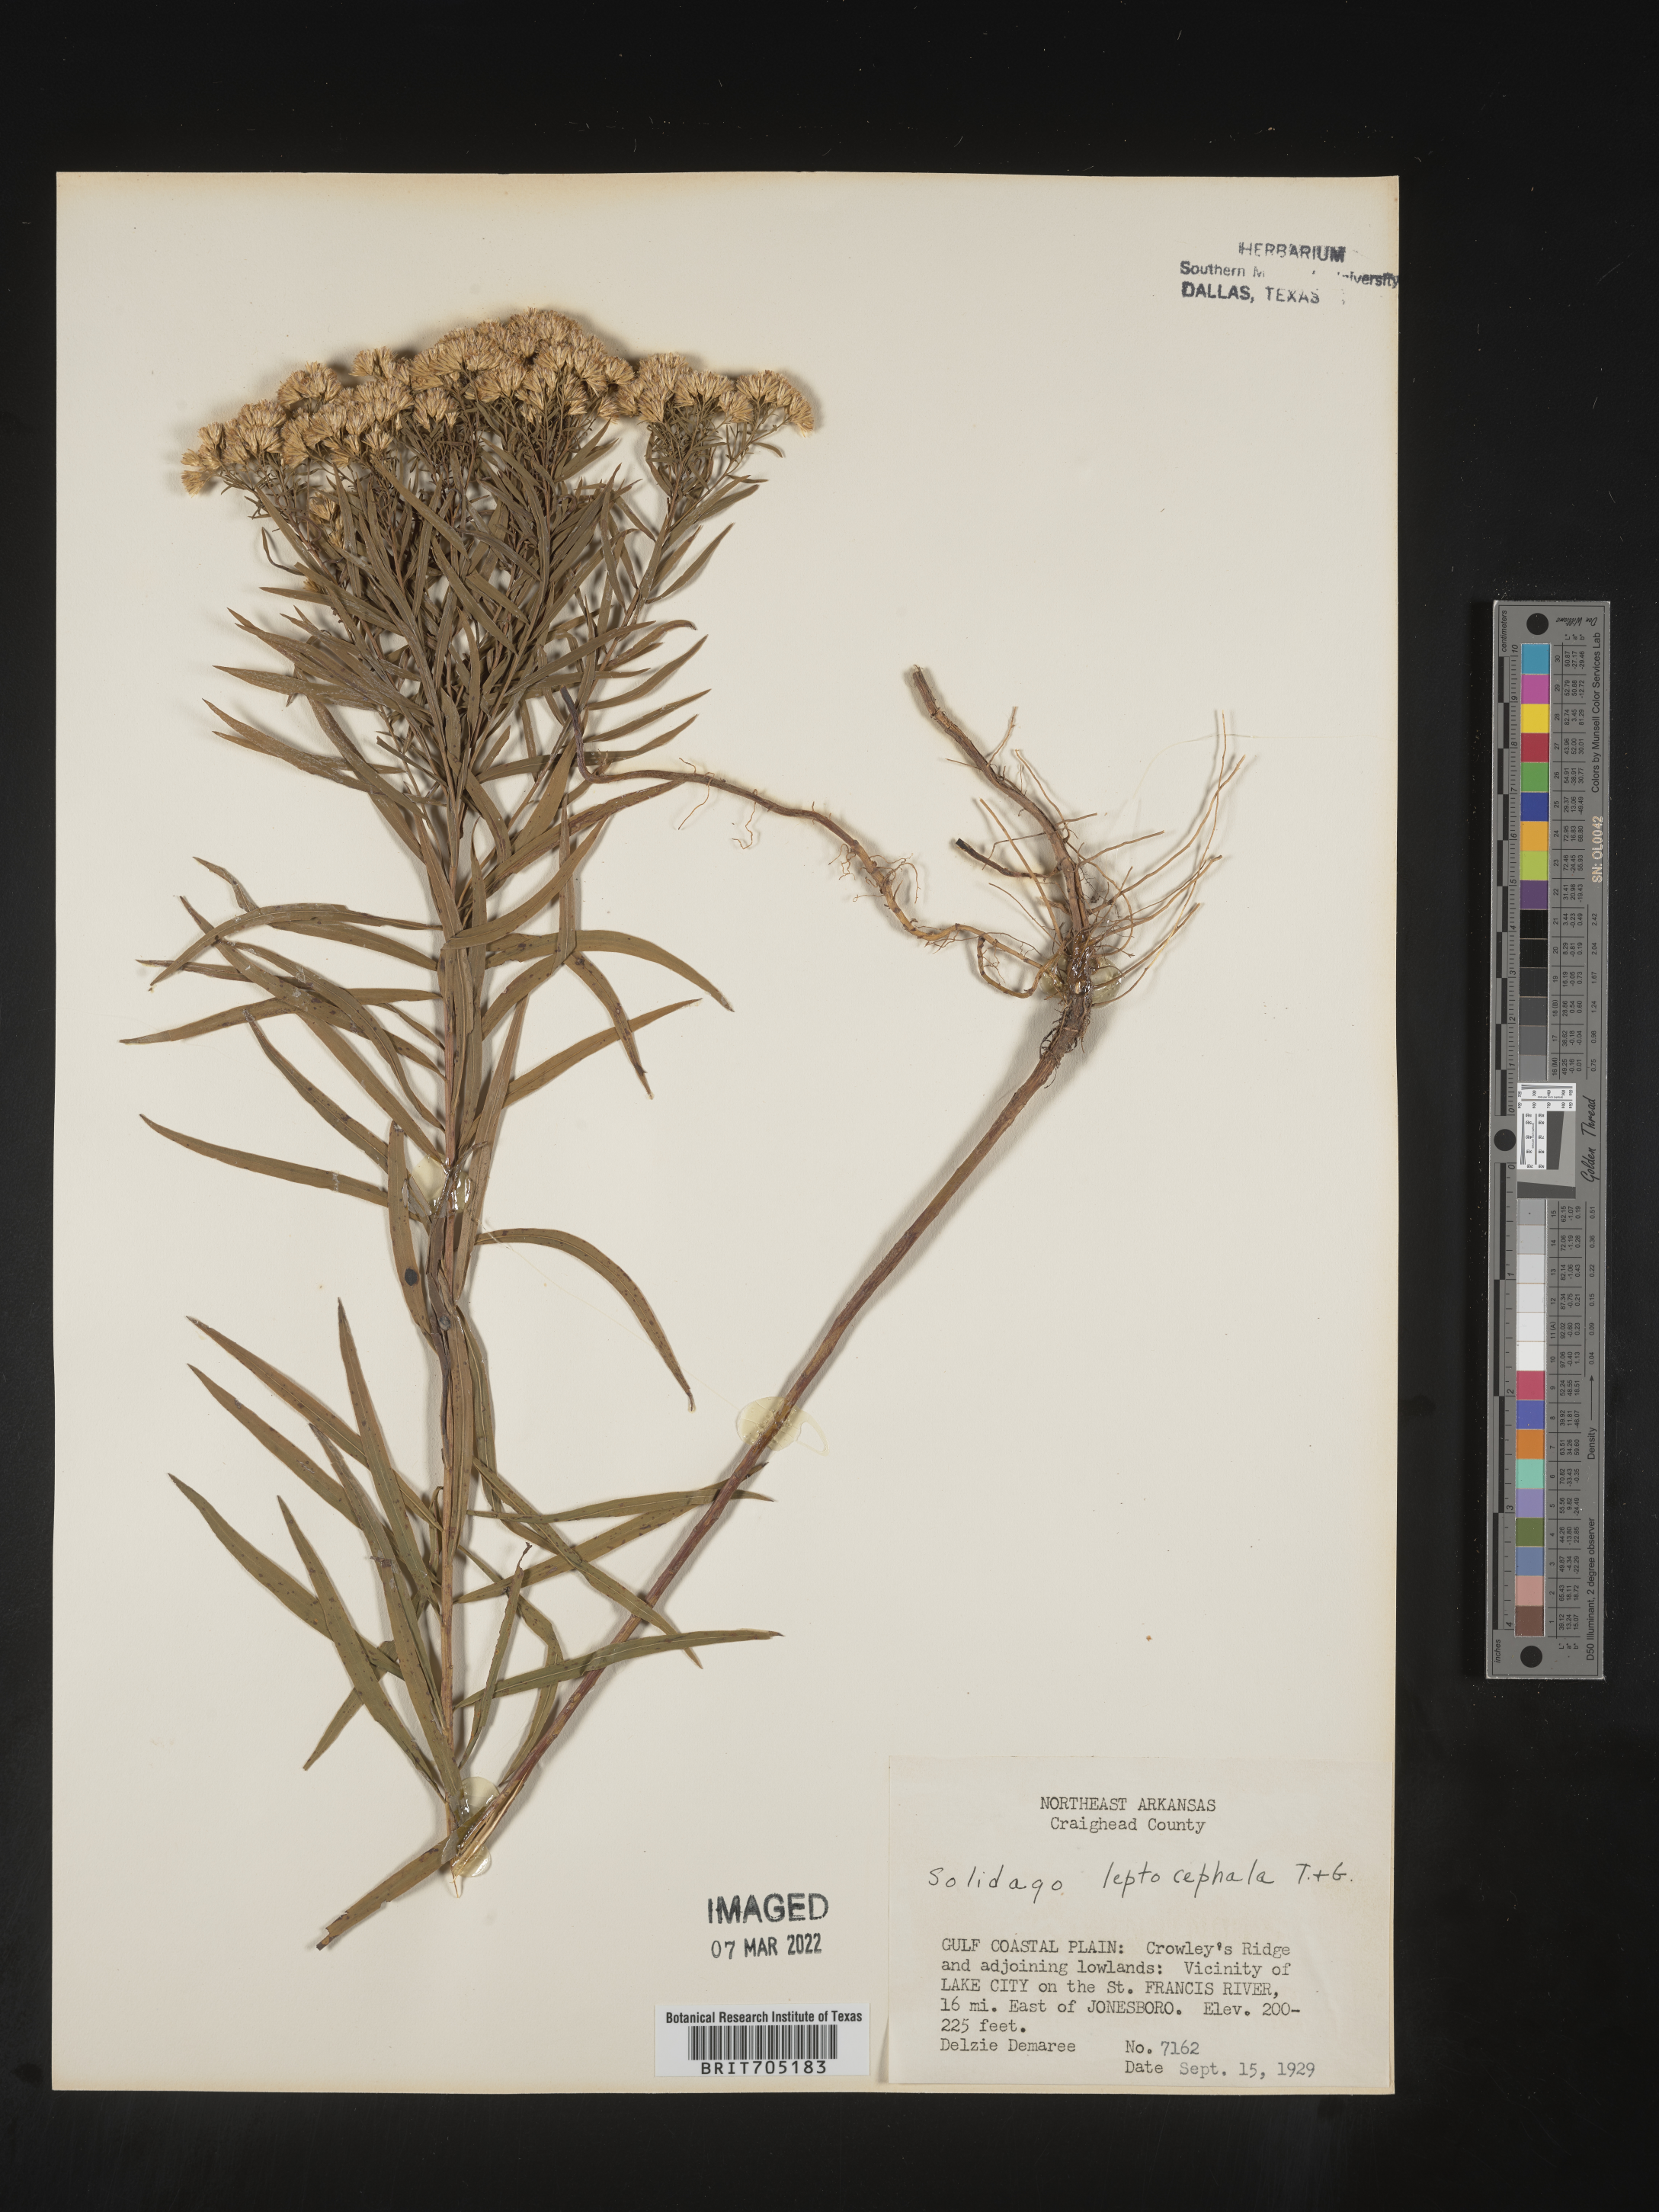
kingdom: Plantae
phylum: Tracheophyta
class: Magnoliopsida
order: Asterales
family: Asteraceae
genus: Euthamia
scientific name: Euthamia leptocephala
